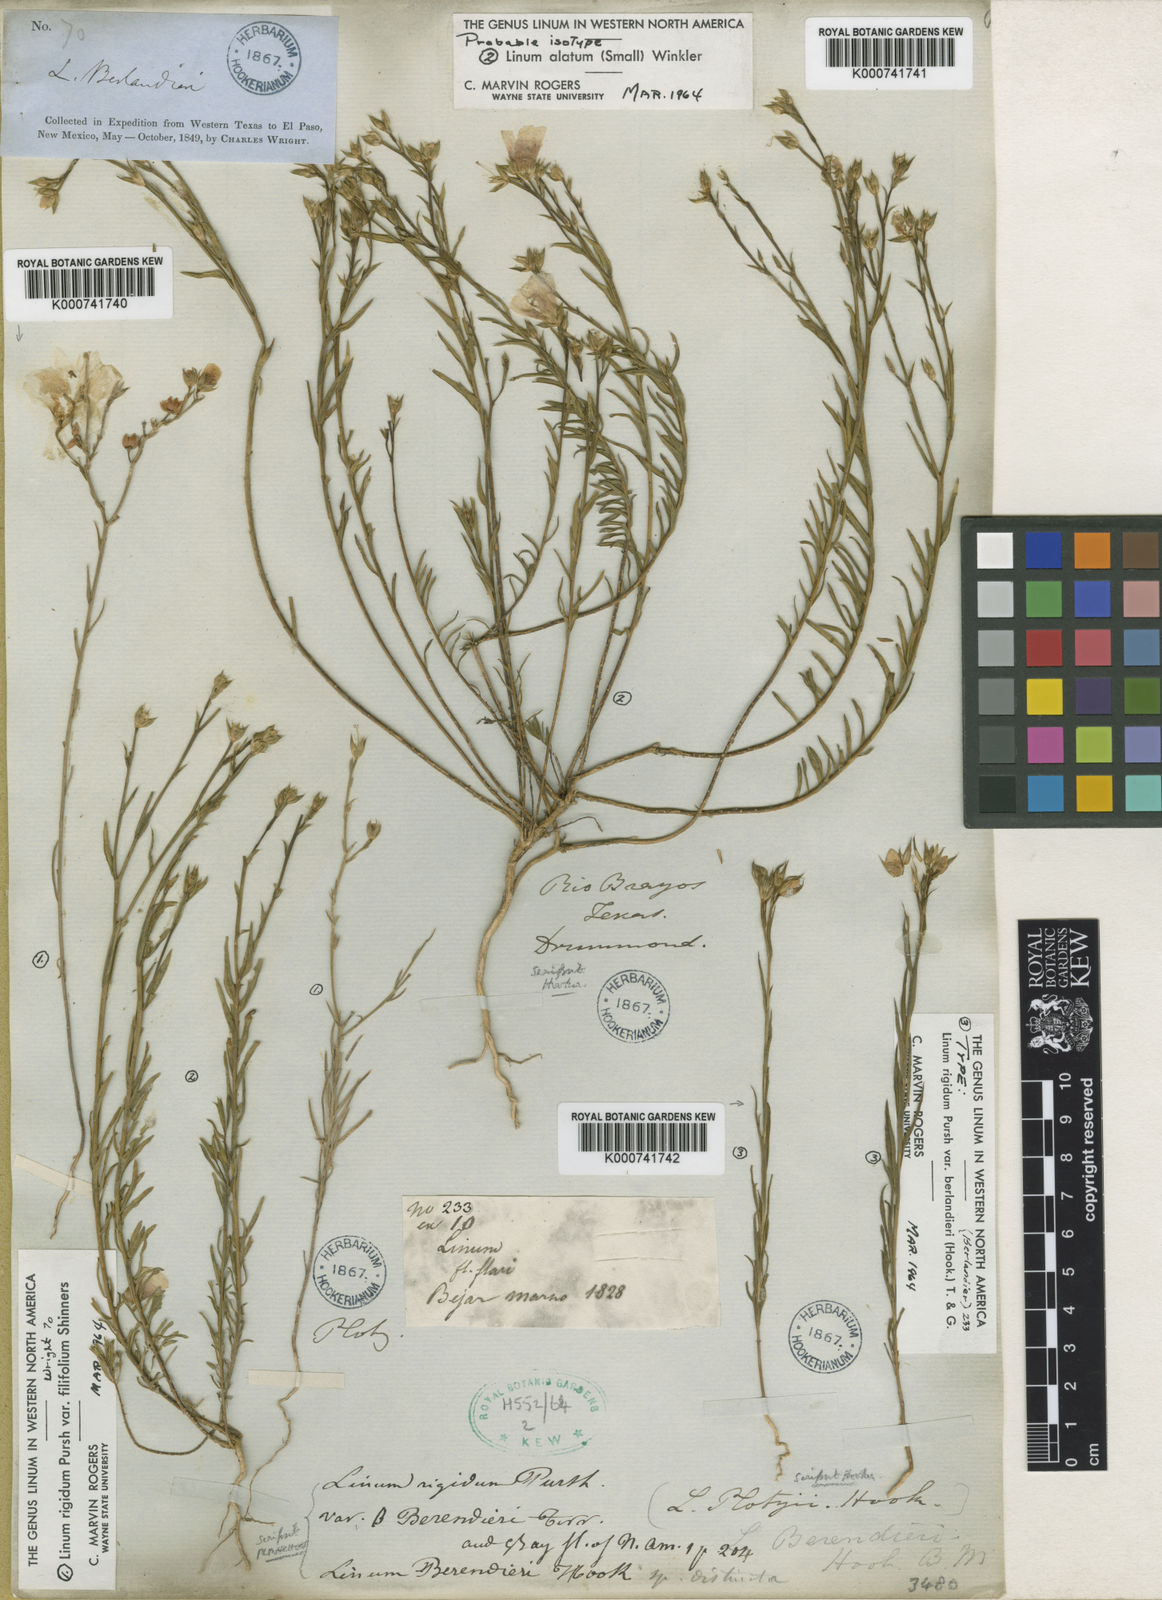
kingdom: Plantae
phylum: Tracheophyta
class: Magnoliopsida
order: Malpighiales
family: Linaceae
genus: Linum
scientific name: Linum berlandieri
